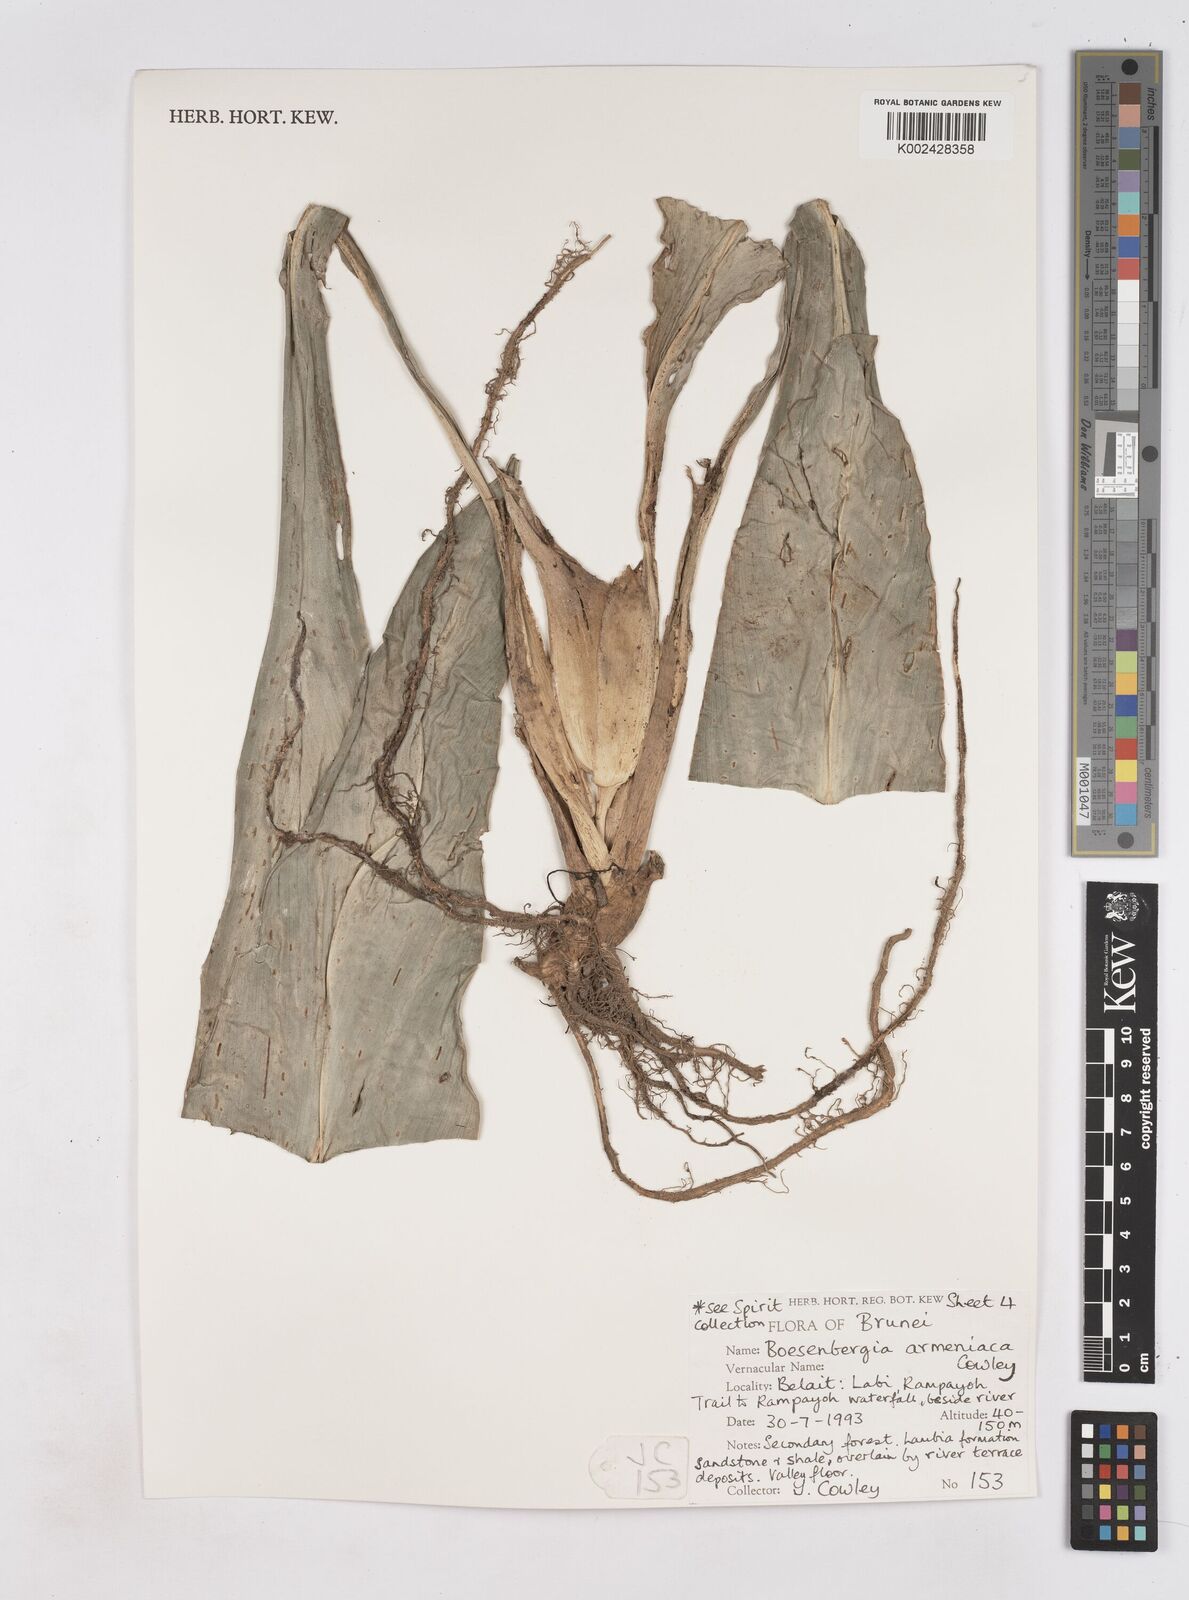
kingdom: Plantae
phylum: Tracheophyta
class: Liliopsida
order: Zingiberales
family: Zingiberaceae
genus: Boesenbergia
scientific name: Boesenbergia armeniaca
